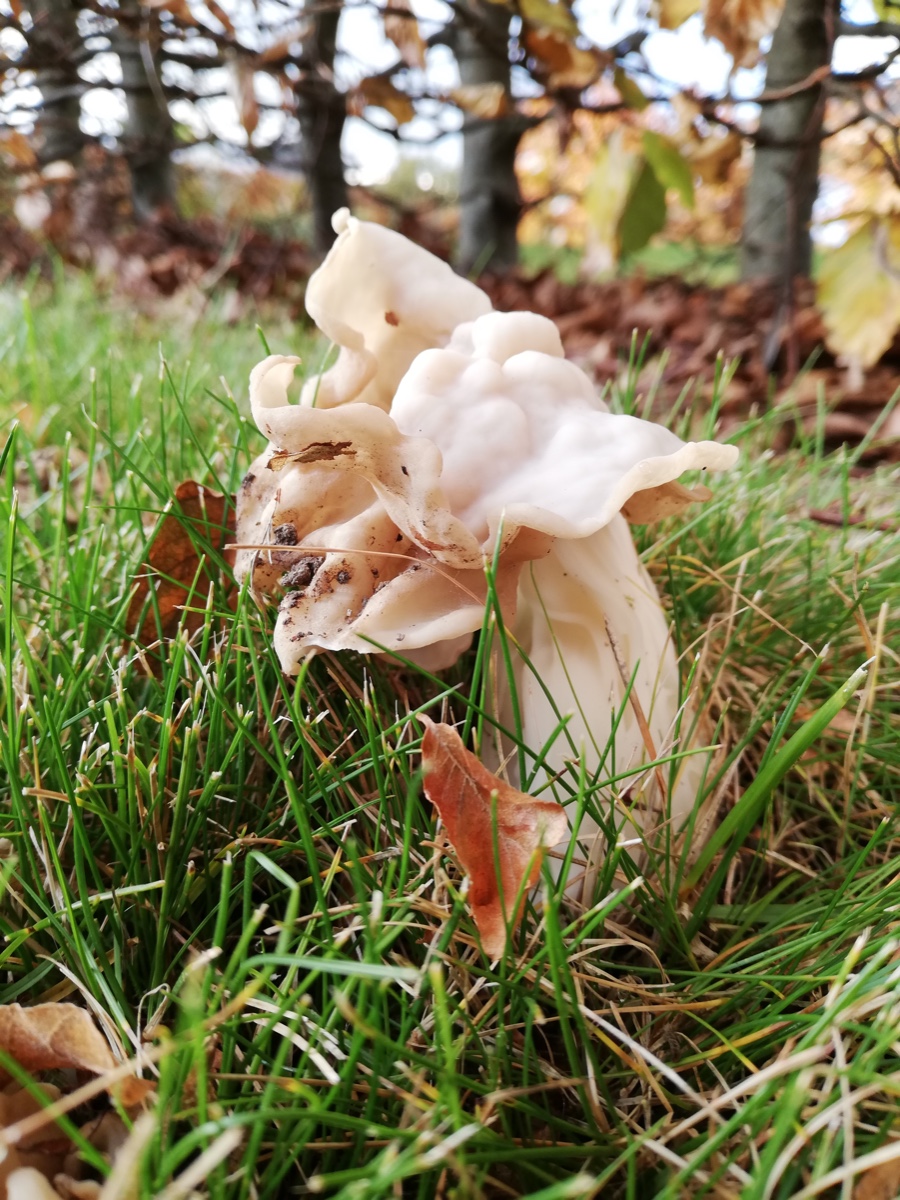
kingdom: Fungi
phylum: Ascomycota
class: Pezizomycetes
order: Pezizales
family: Helvellaceae
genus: Helvella
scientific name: Helvella crispa
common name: kruset foldhat
